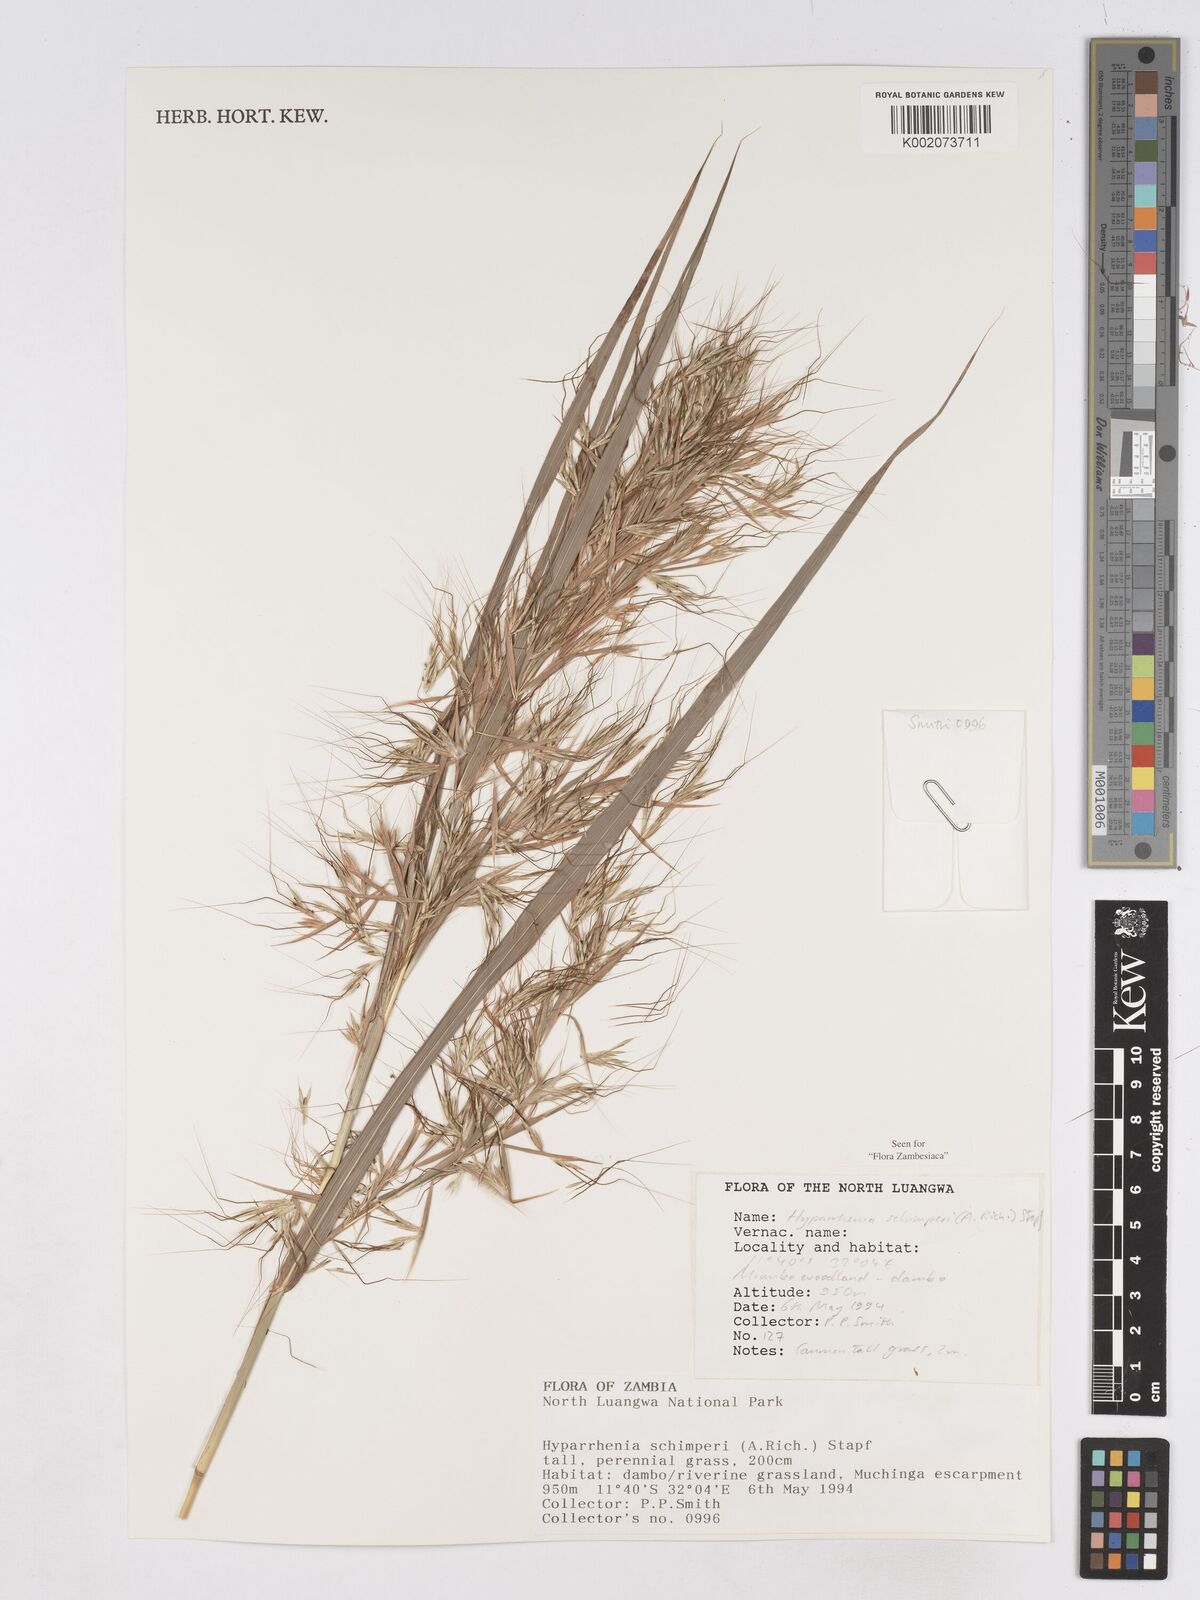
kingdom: Plantae
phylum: Tracheophyta
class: Liliopsida
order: Poales
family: Poaceae
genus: Hyparrhenia
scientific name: Hyparrhenia schimperi
